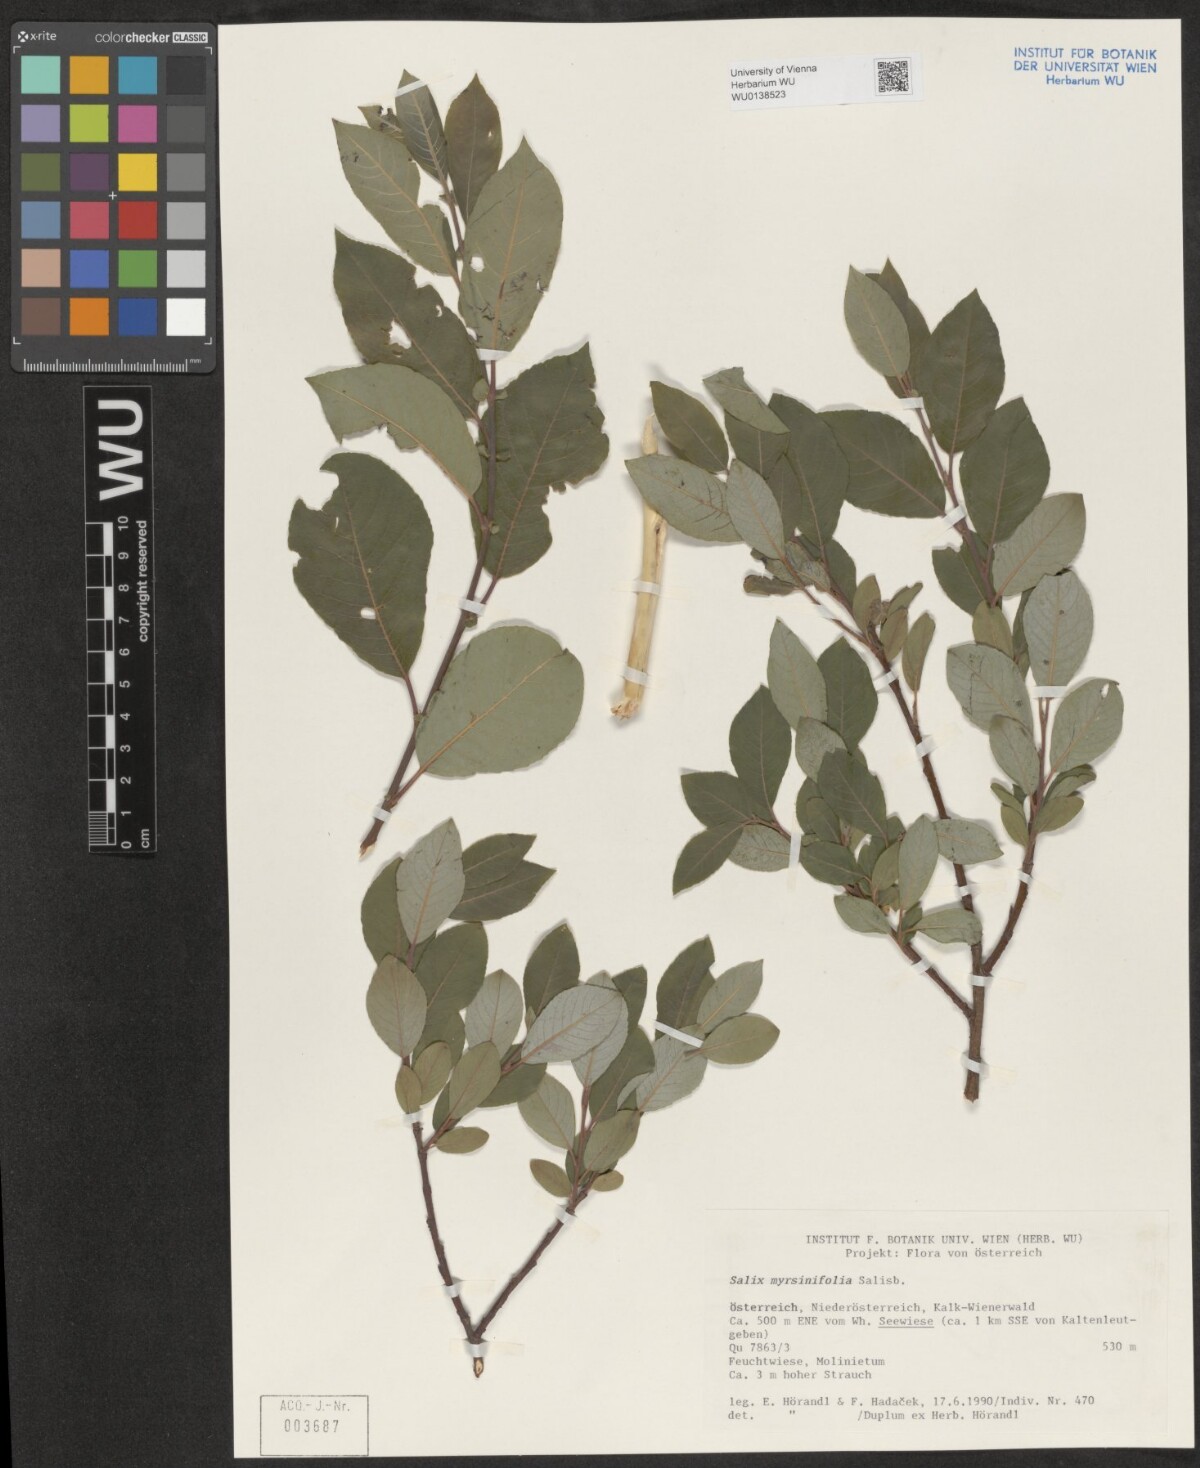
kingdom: Plantae
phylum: Tracheophyta
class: Magnoliopsida
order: Malpighiales
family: Salicaceae
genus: Salix
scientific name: Salix myrsinifolia
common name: Dark-leaved willow
